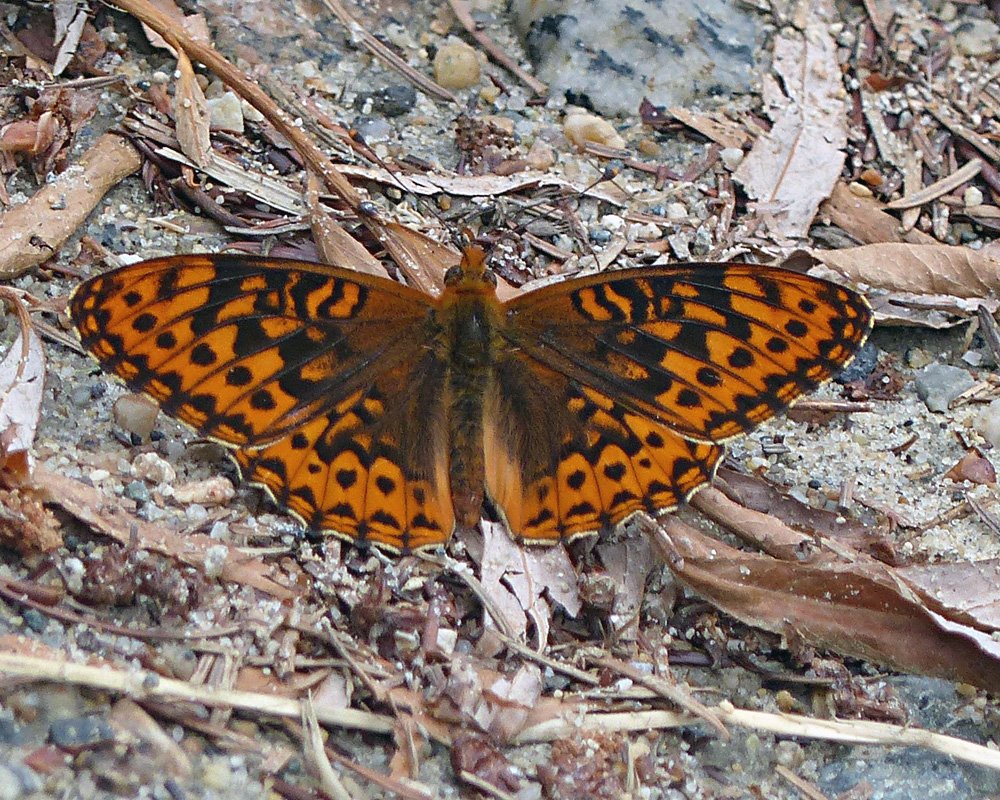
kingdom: Animalia
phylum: Arthropoda
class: Insecta
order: Lepidoptera
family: Nymphalidae
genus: Speyeria
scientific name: Speyeria hydaspe
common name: Hydaspe Fritillary
